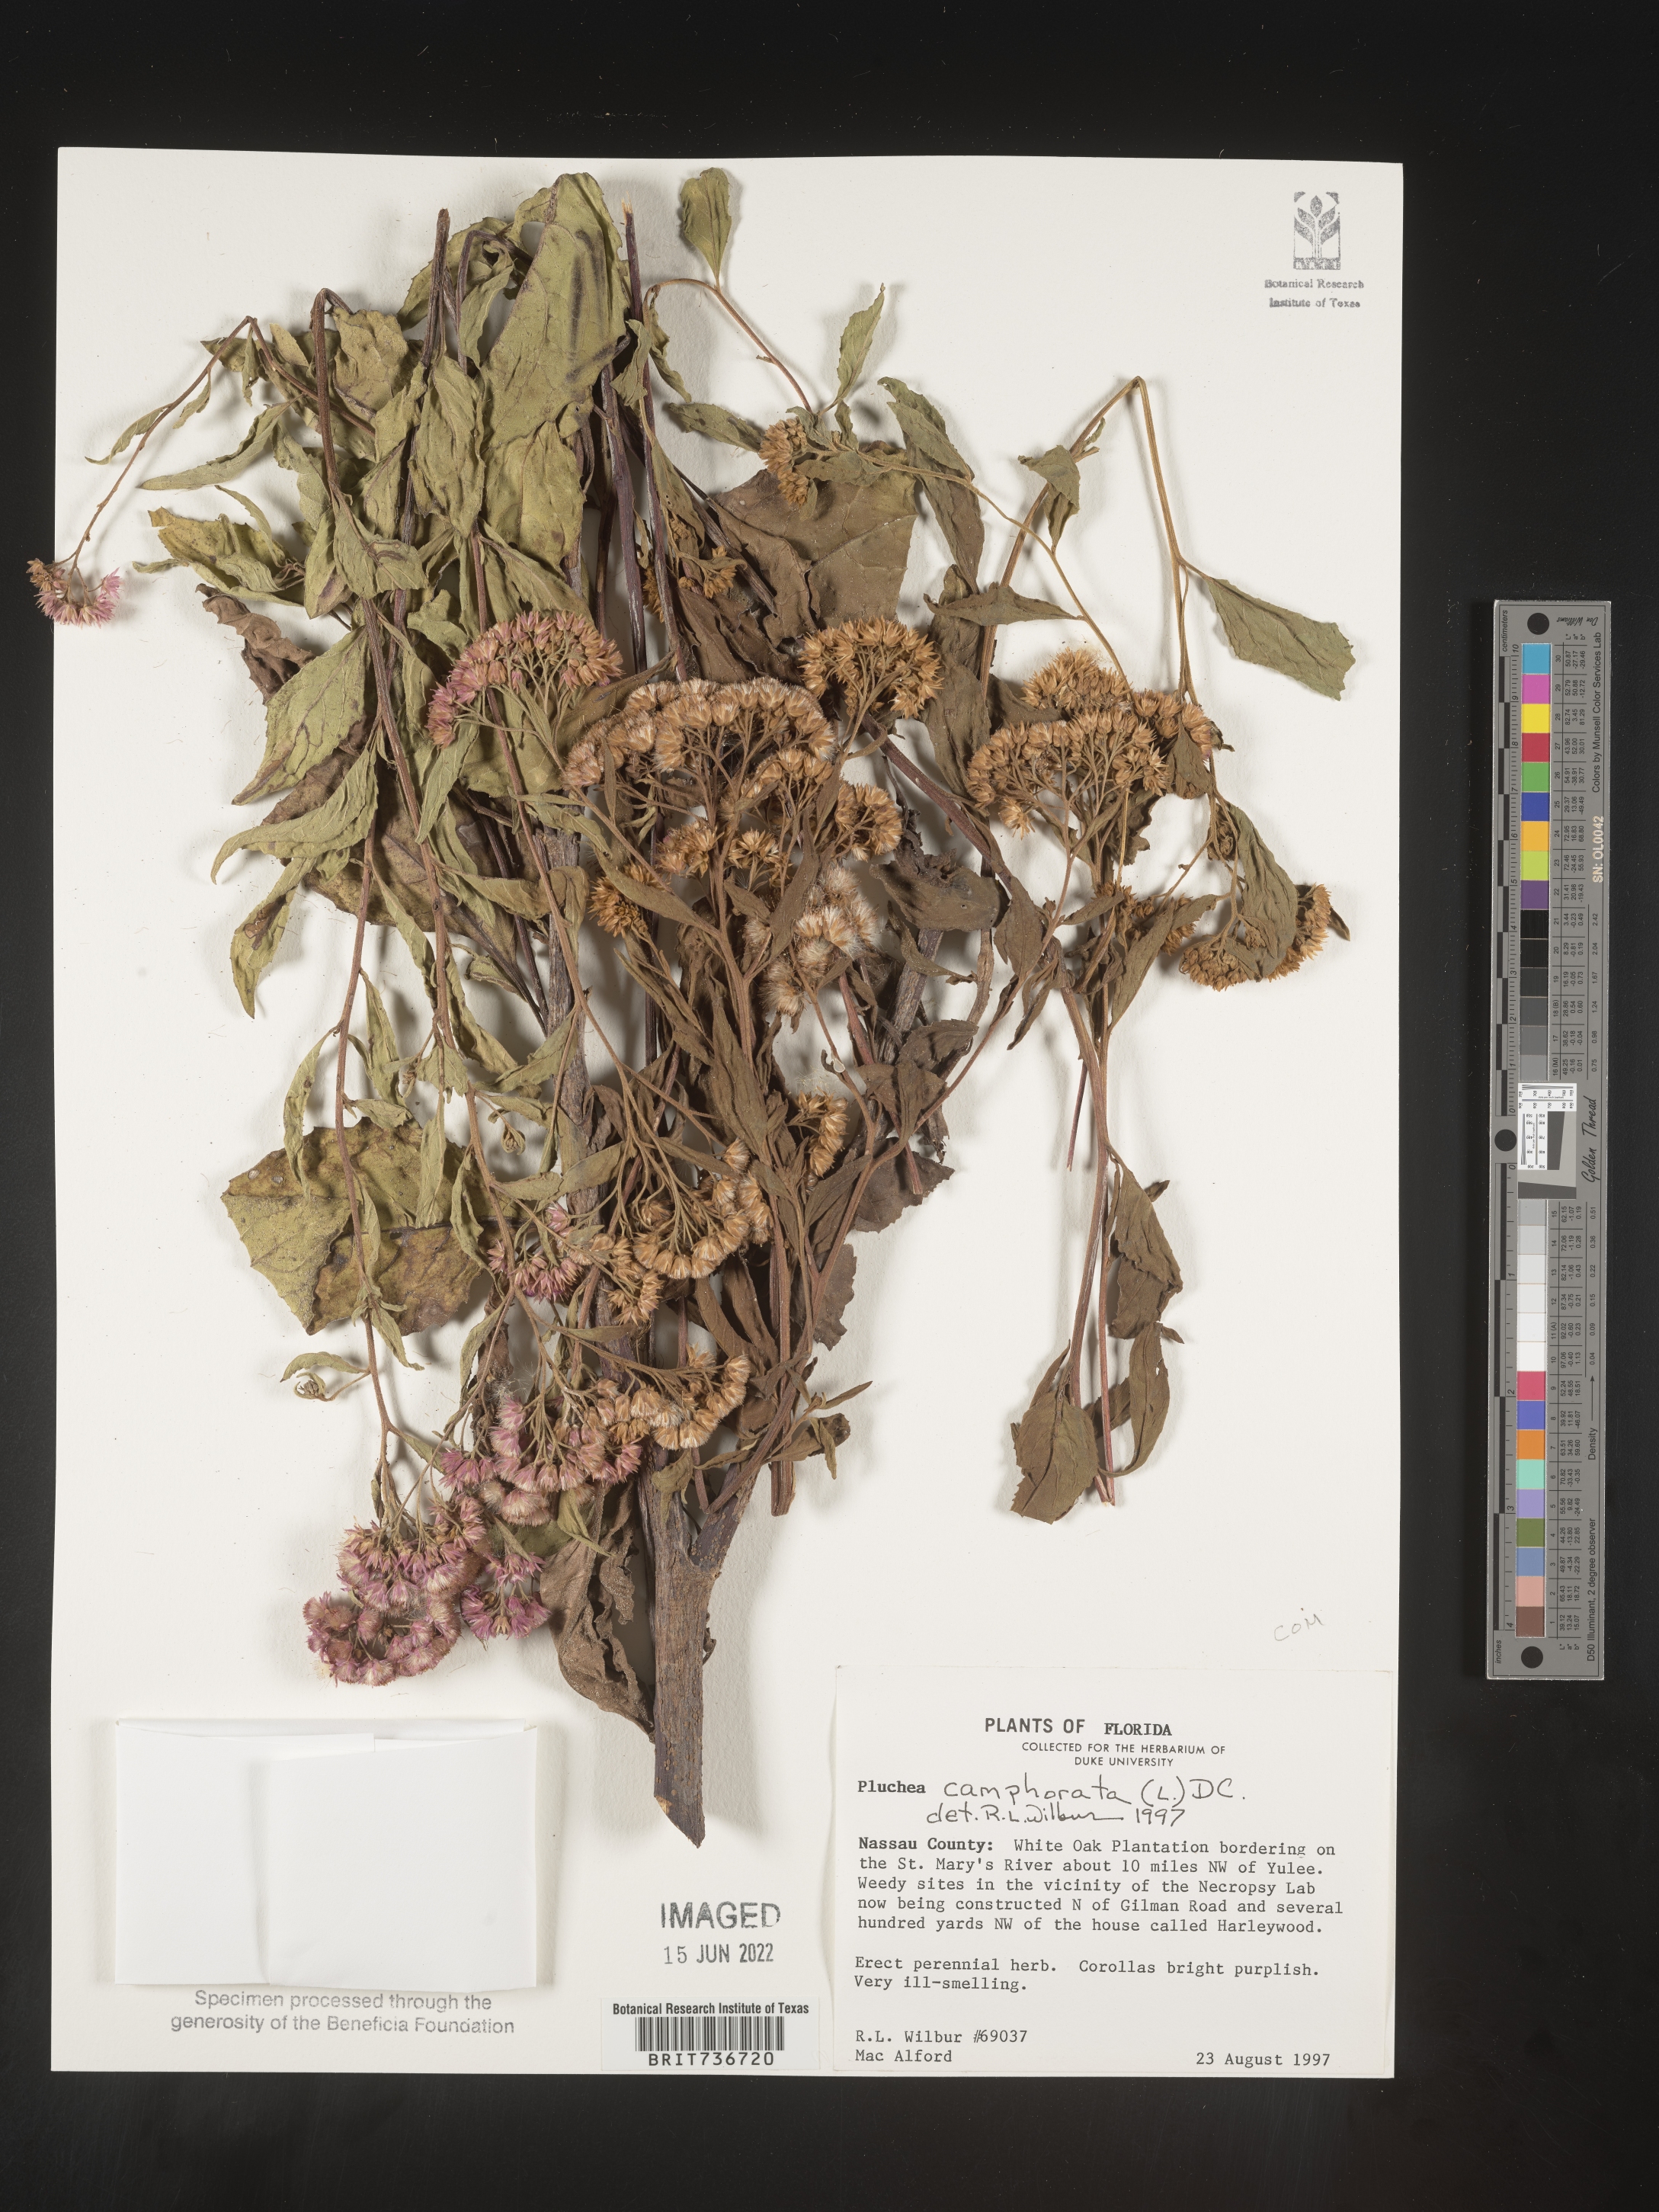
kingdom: Plantae
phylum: Tracheophyta
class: Magnoliopsida
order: Asterales
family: Asteraceae
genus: Pluchea
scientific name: Pluchea odorata
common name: Saltmarsh fleabane
